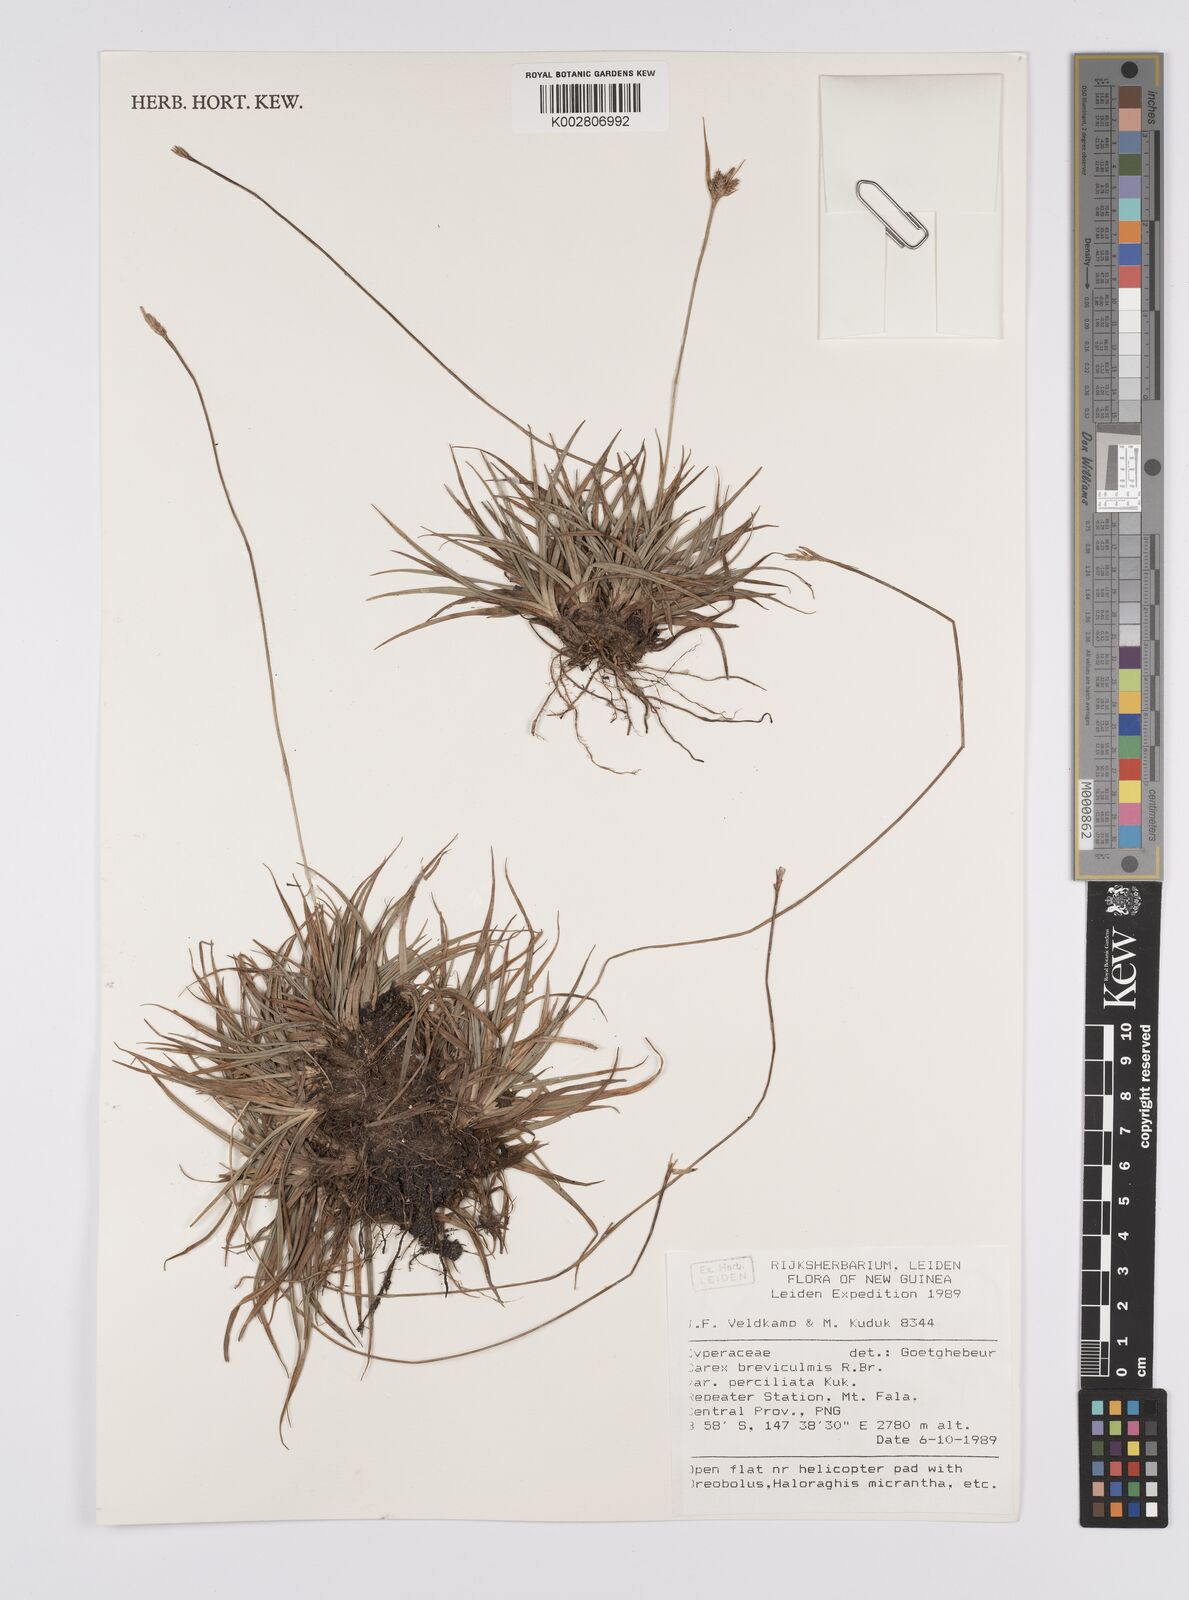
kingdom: Plantae
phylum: Tracheophyta
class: Liliopsida
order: Poales
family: Cyperaceae
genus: Carex
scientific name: Carex breviculmis
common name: Asian shortstem sedge
